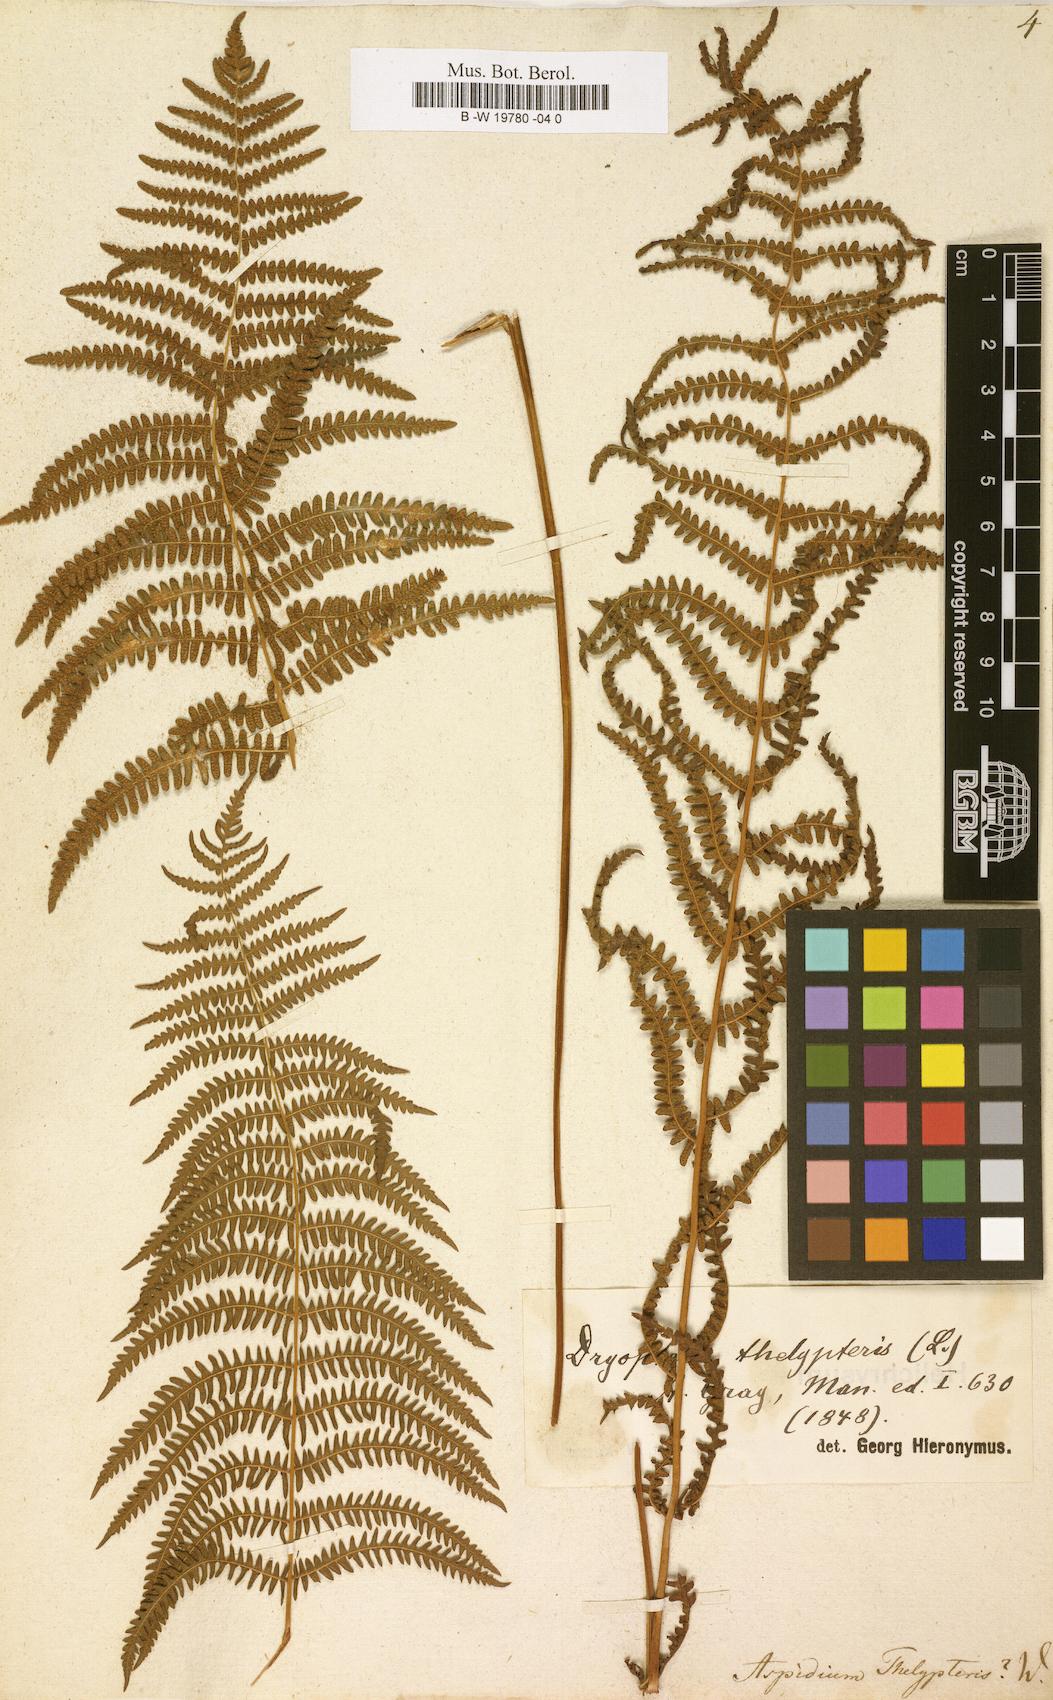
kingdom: Plantae
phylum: Tracheophyta
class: Polypodiopsida
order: Polypodiales
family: Thelypteridaceae
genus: Thelypteris
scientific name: Thelypteris palustris
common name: Marsh fern
